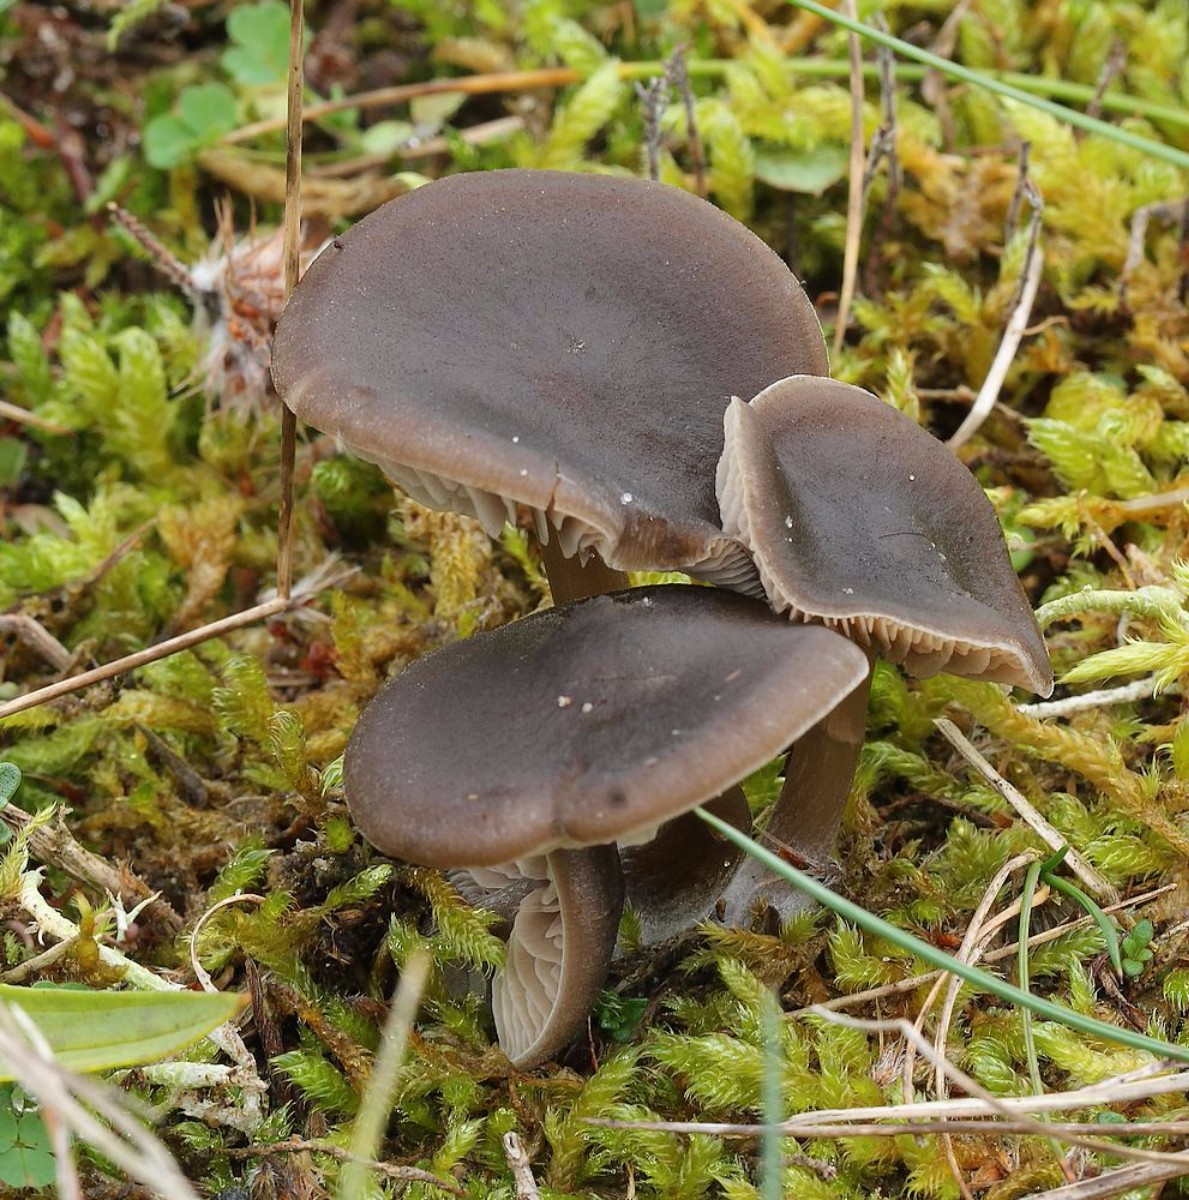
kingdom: Fungi
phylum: Basidiomycota
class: Agaricomycetes
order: Agaricales
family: Entolomataceae
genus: Entoloma
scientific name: Entoloma vindobonense
